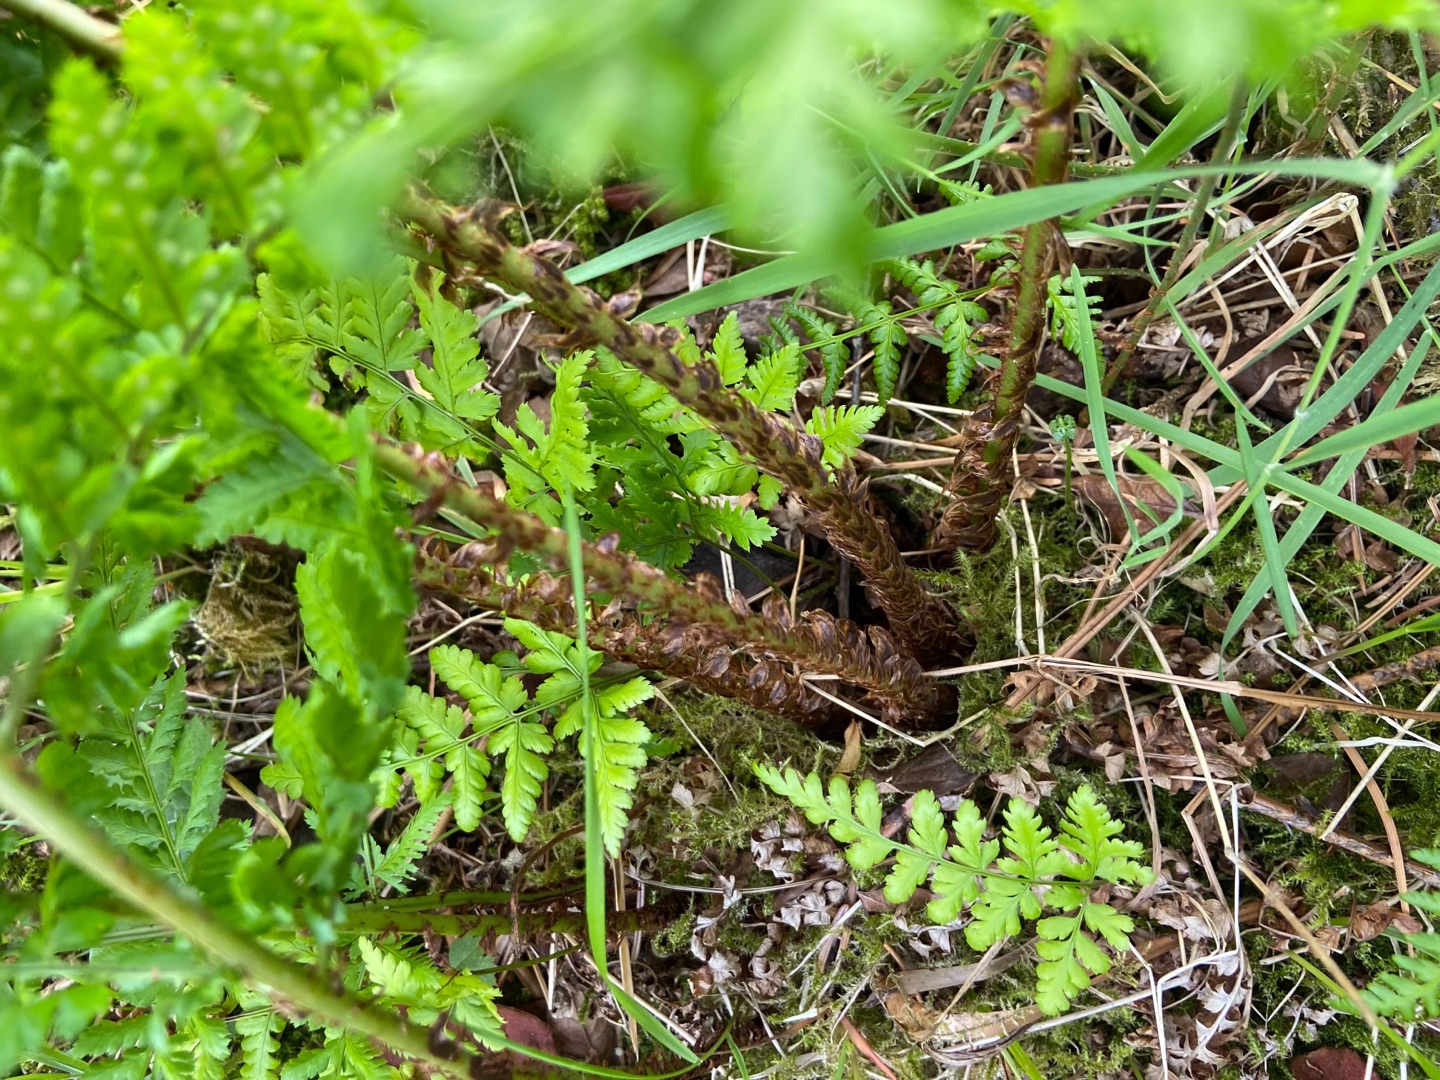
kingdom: Plantae
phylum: Tracheophyta
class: Polypodiopsida
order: Polypodiales
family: Dryopteridaceae
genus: Dryopteris
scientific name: Dryopteris dilatata
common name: Bredbladet mangeløv
